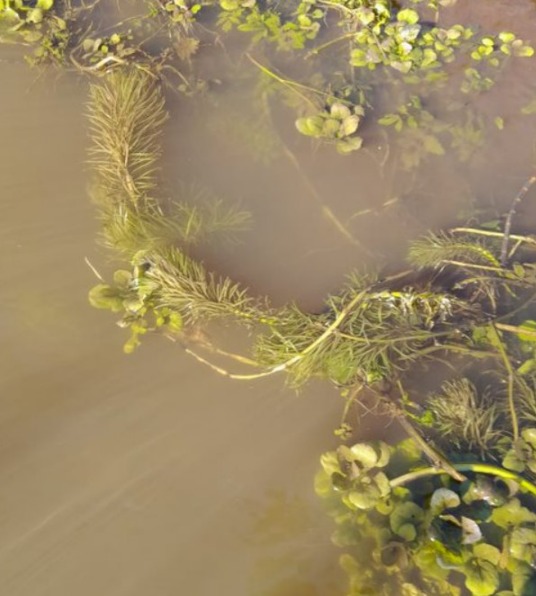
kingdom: Plantae
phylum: Tracheophyta
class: Magnoliopsida
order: Lamiales
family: Plantaginaceae
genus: Hippuris
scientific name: Hippuris vulgaris
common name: Vandspir
